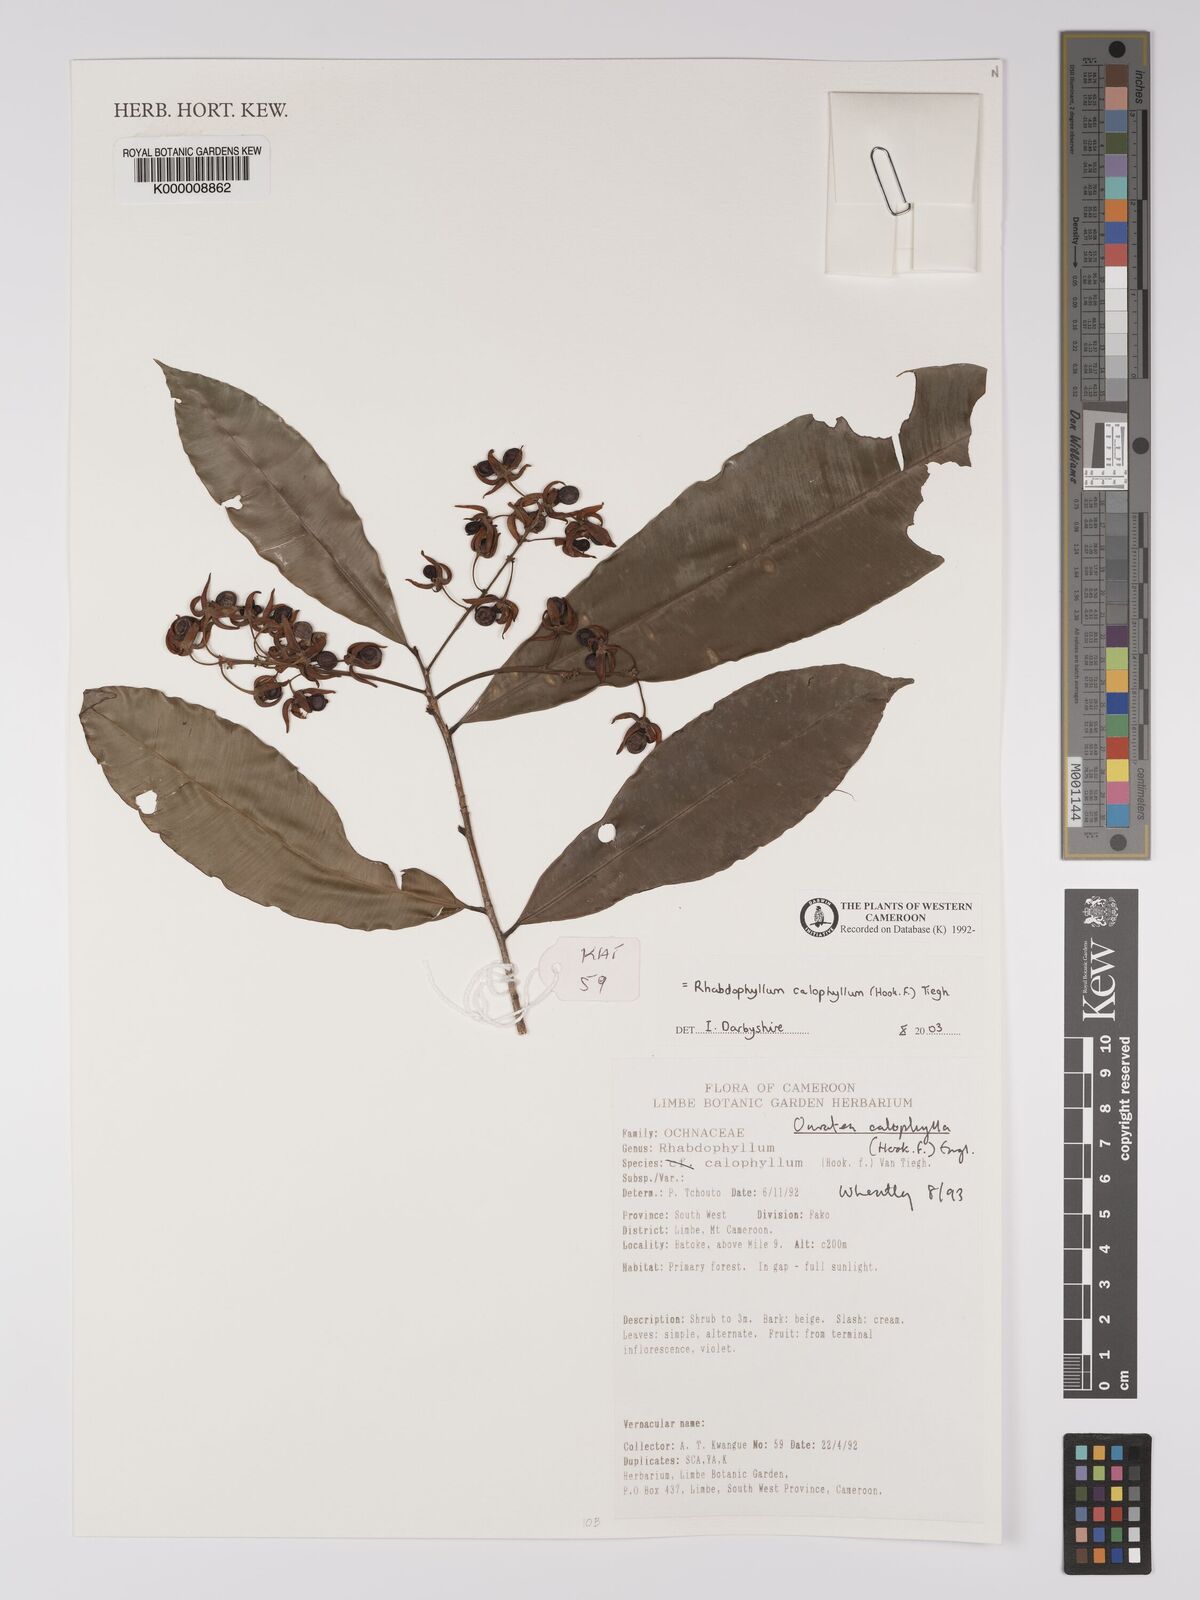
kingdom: Plantae
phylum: Tracheophyta
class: Magnoliopsida
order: Malpighiales
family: Ochnaceae
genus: Rhabdophyllum
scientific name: Rhabdophyllum calophyllum
